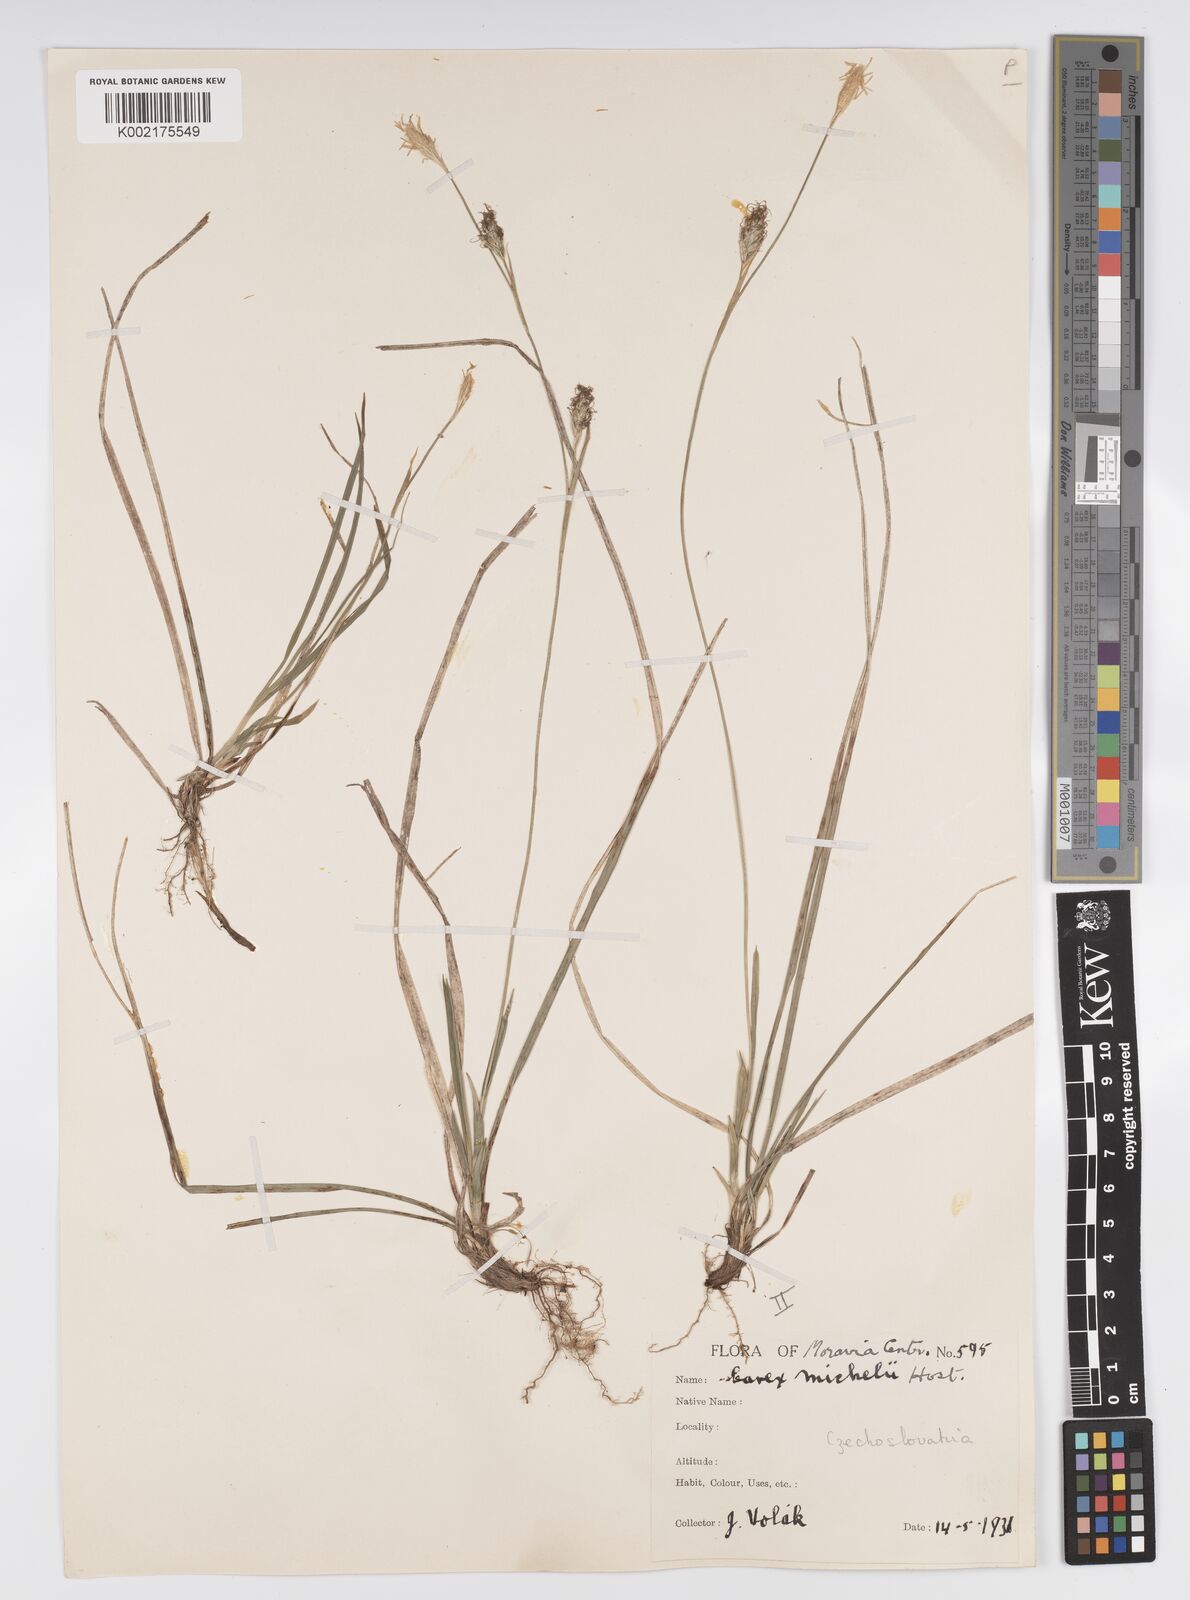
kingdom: Plantae
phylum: Tracheophyta
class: Liliopsida
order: Poales
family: Cyperaceae
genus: Carex
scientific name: Carex michelii
